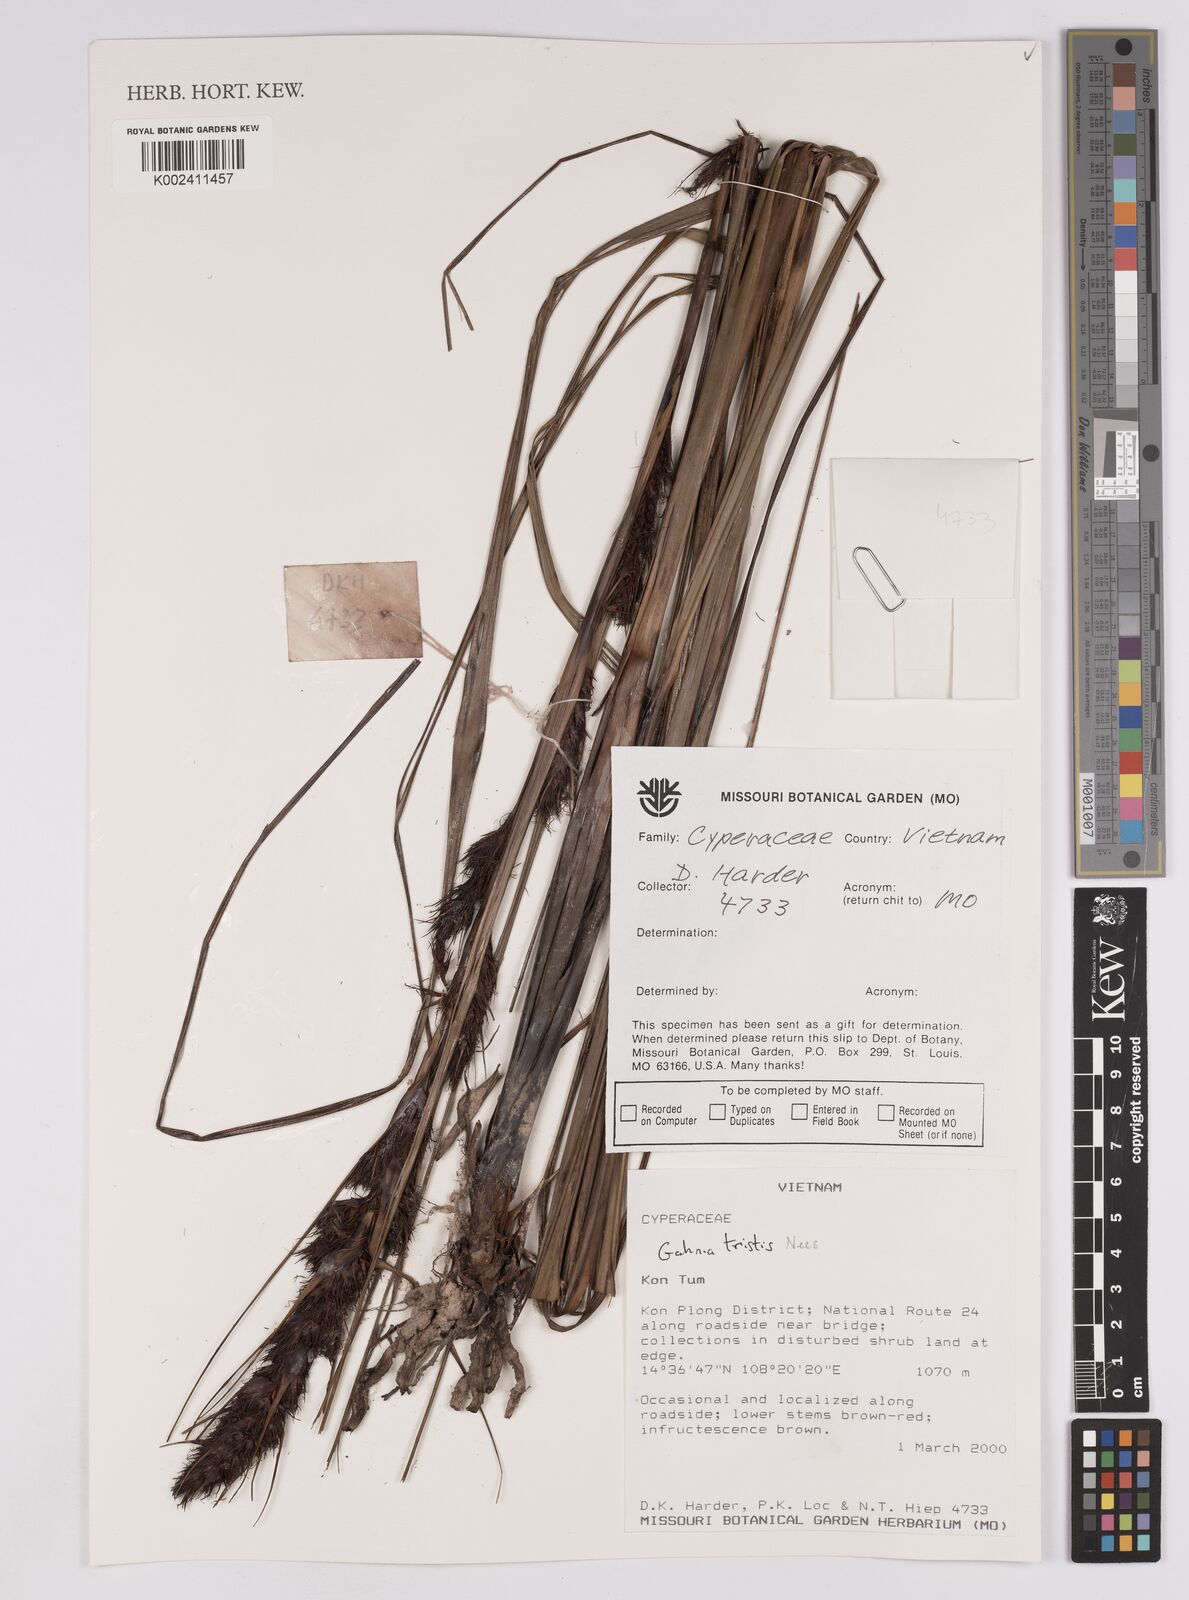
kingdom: Plantae
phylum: Tracheophyta
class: Liliopsida
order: Poales
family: Cyperaceae
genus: Gahnia
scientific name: Gahnia tristis
